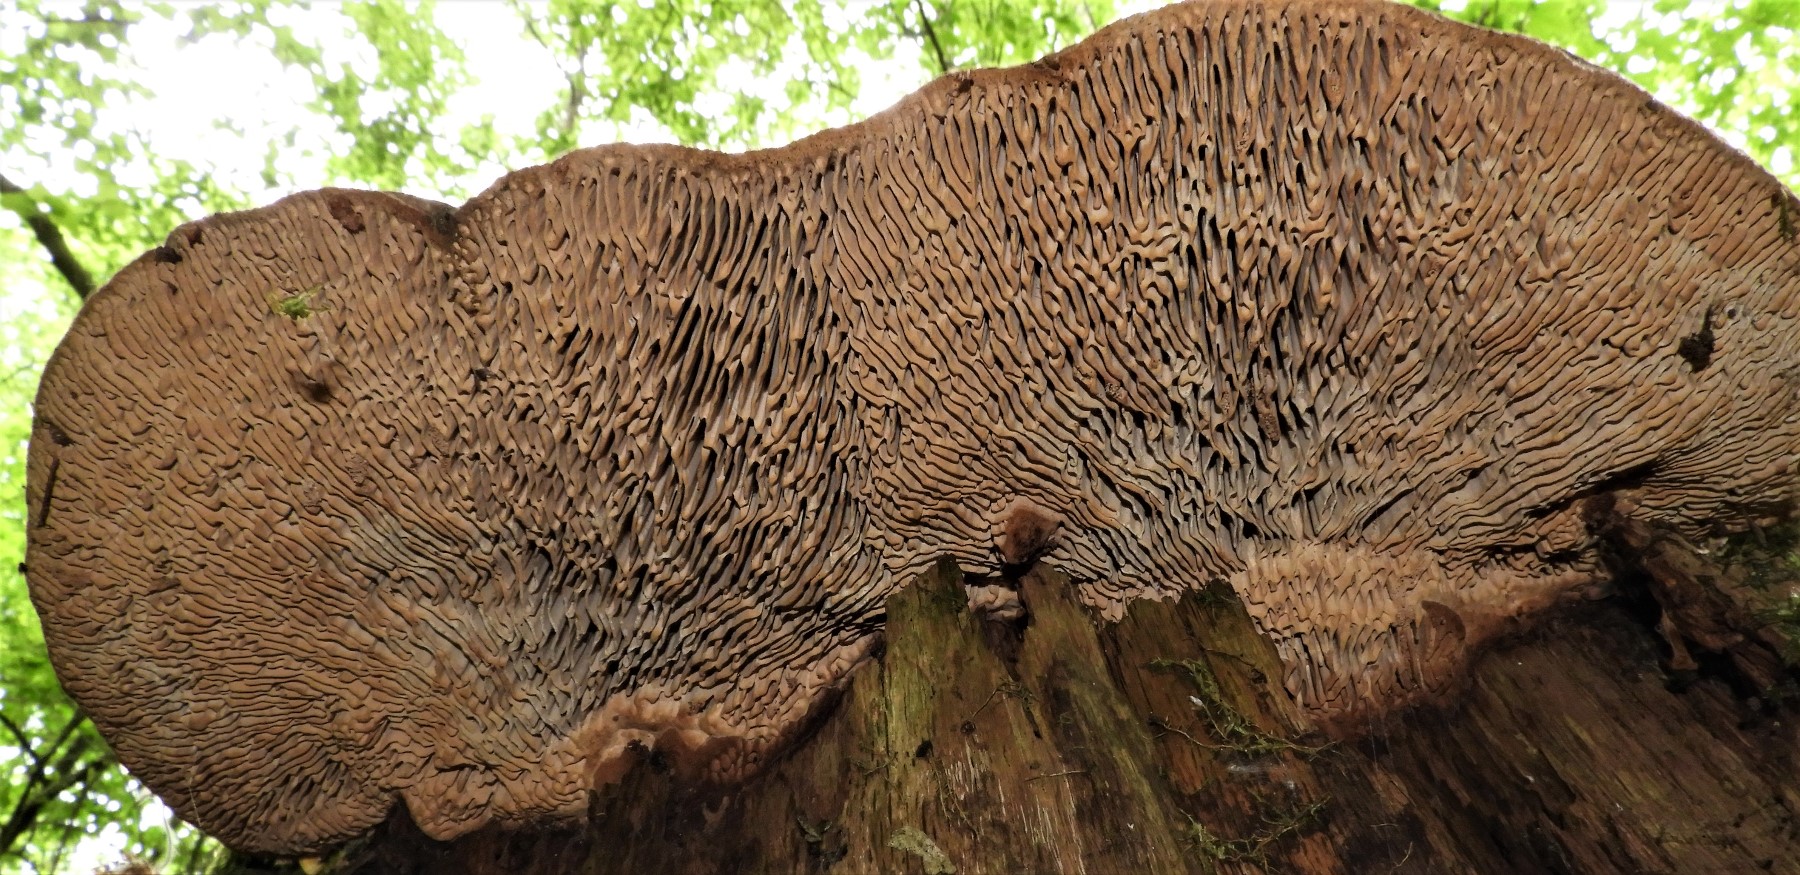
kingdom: Fungi
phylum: Basidiomycota
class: Agaricomycetes
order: Polyporales
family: Fomitopsidaceae
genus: Daedalea
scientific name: Daedalea quercina
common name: ege-labyrintsvamp
